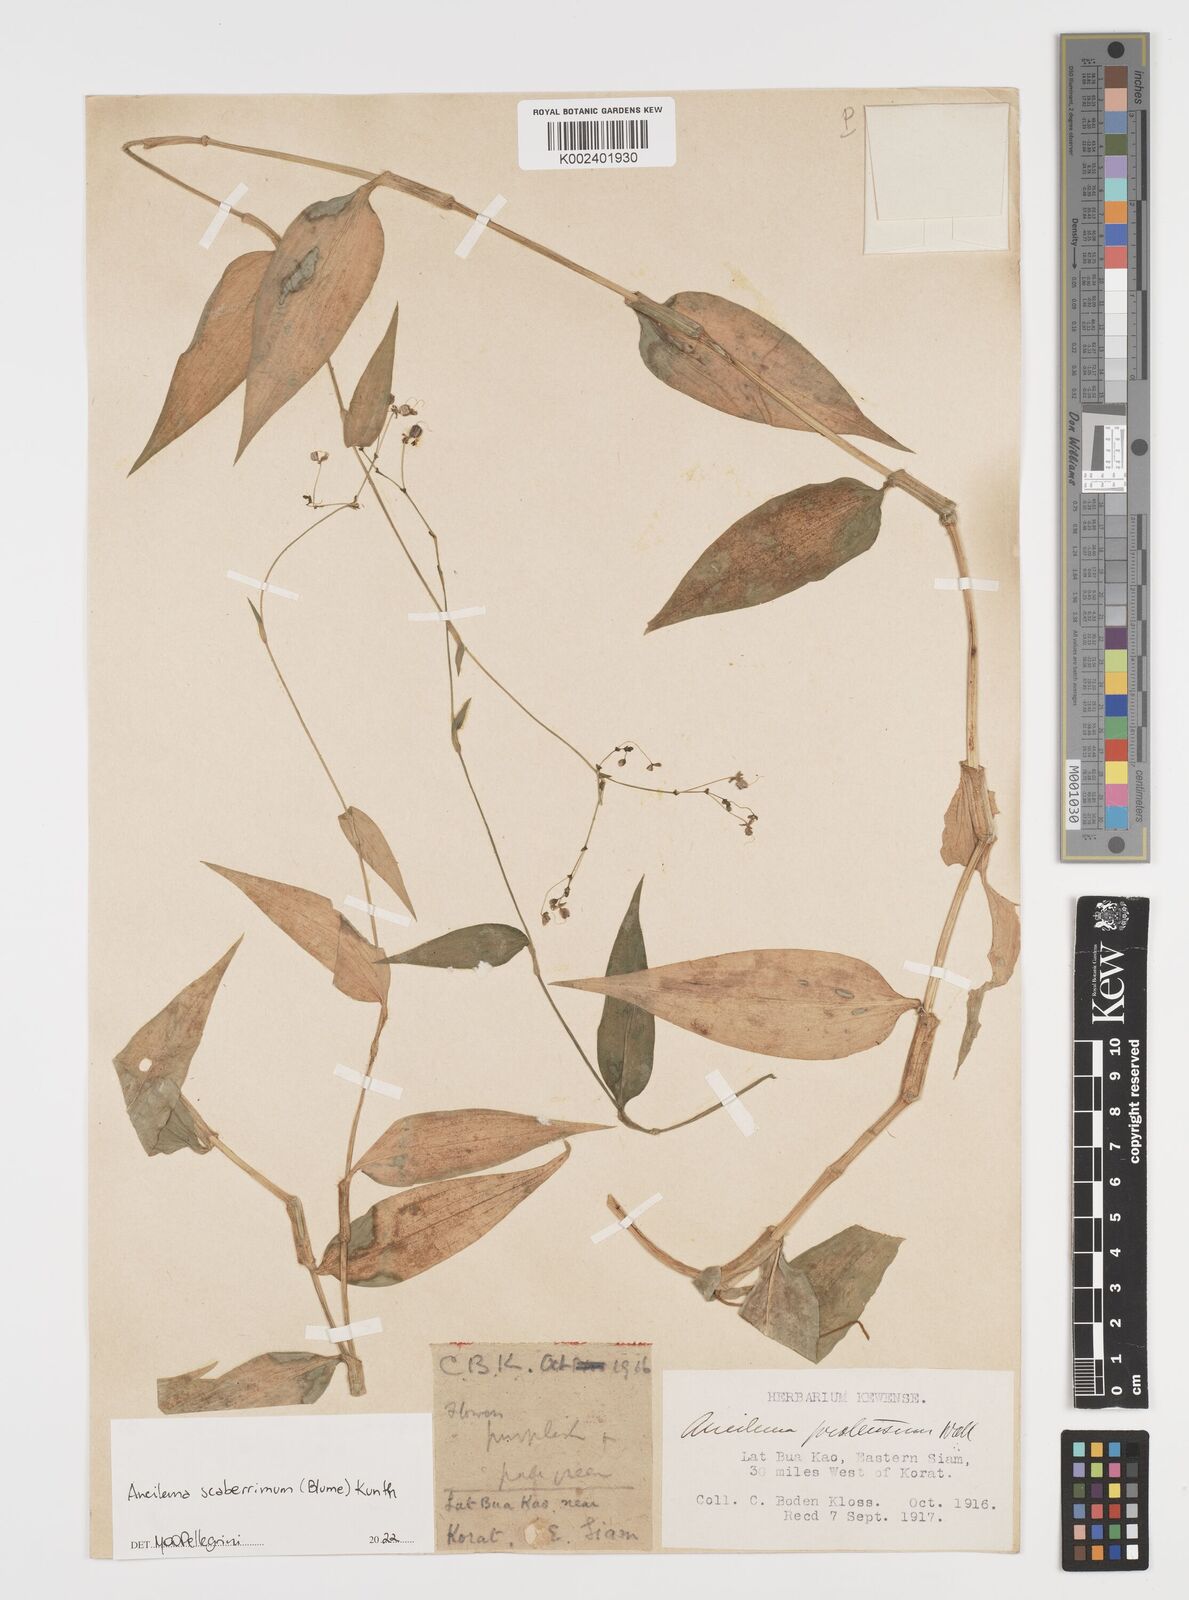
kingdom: Plantae
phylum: Tracheophyta
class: Liliopsida
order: Commelinales
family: Commelinaceae
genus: Rhopalephora
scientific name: Rhopalephora
